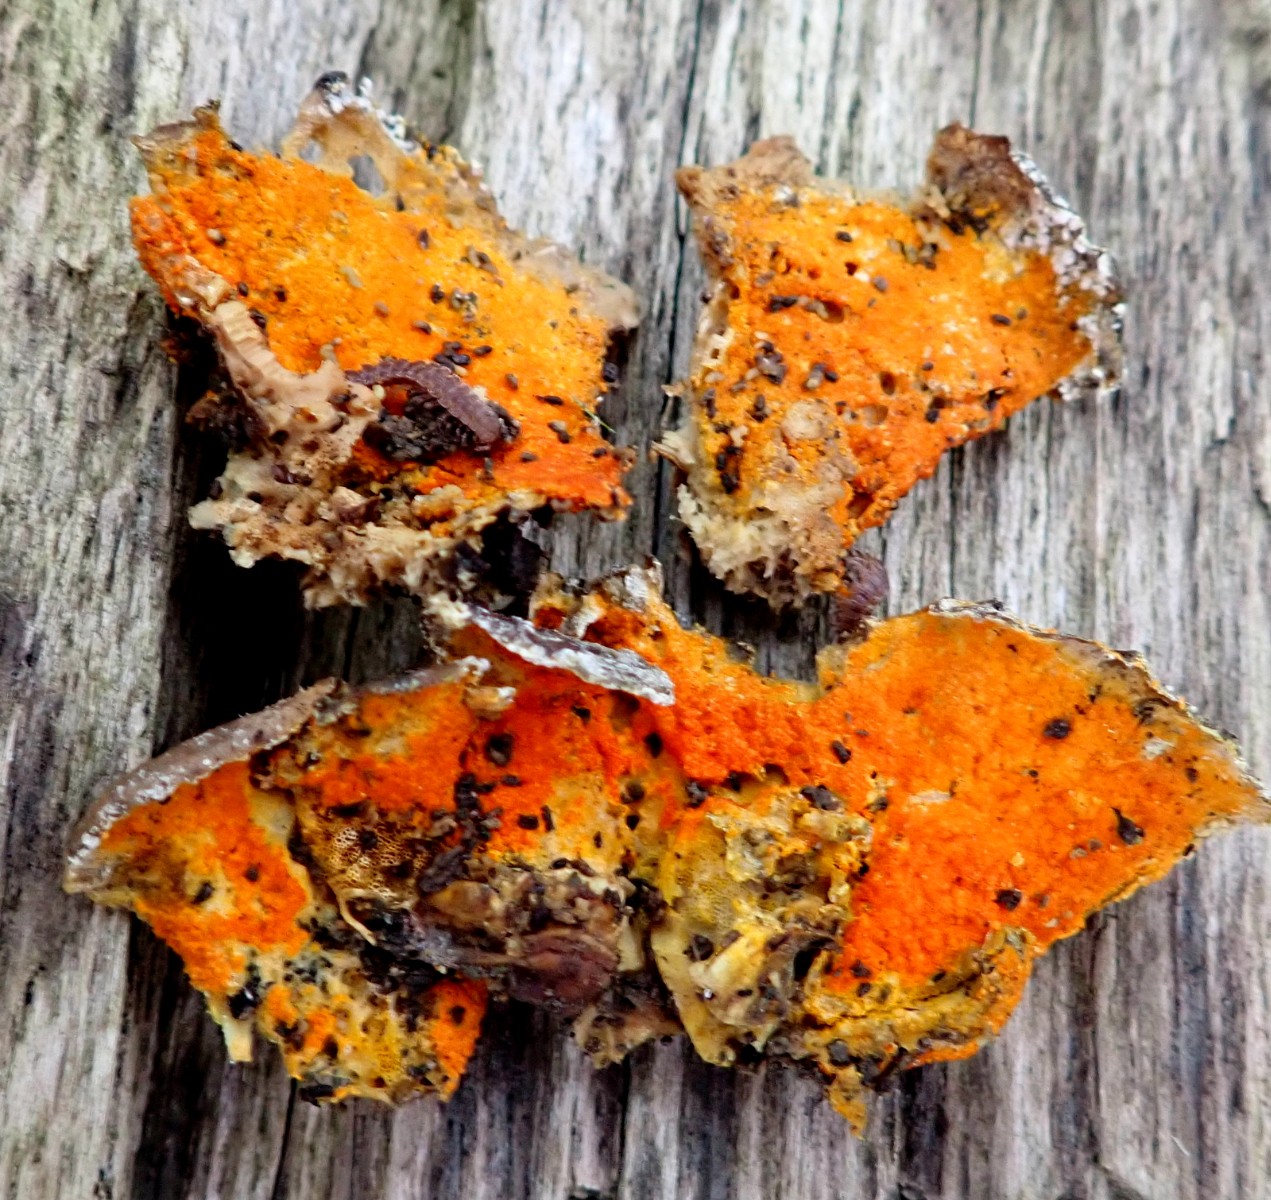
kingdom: Fungi
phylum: Ascomycota
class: Sordariomycetes
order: Hypocreales
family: Hypocreaceae
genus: Hypomyces
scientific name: Hypomyces aurantius
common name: almindelig snylteskorpe
